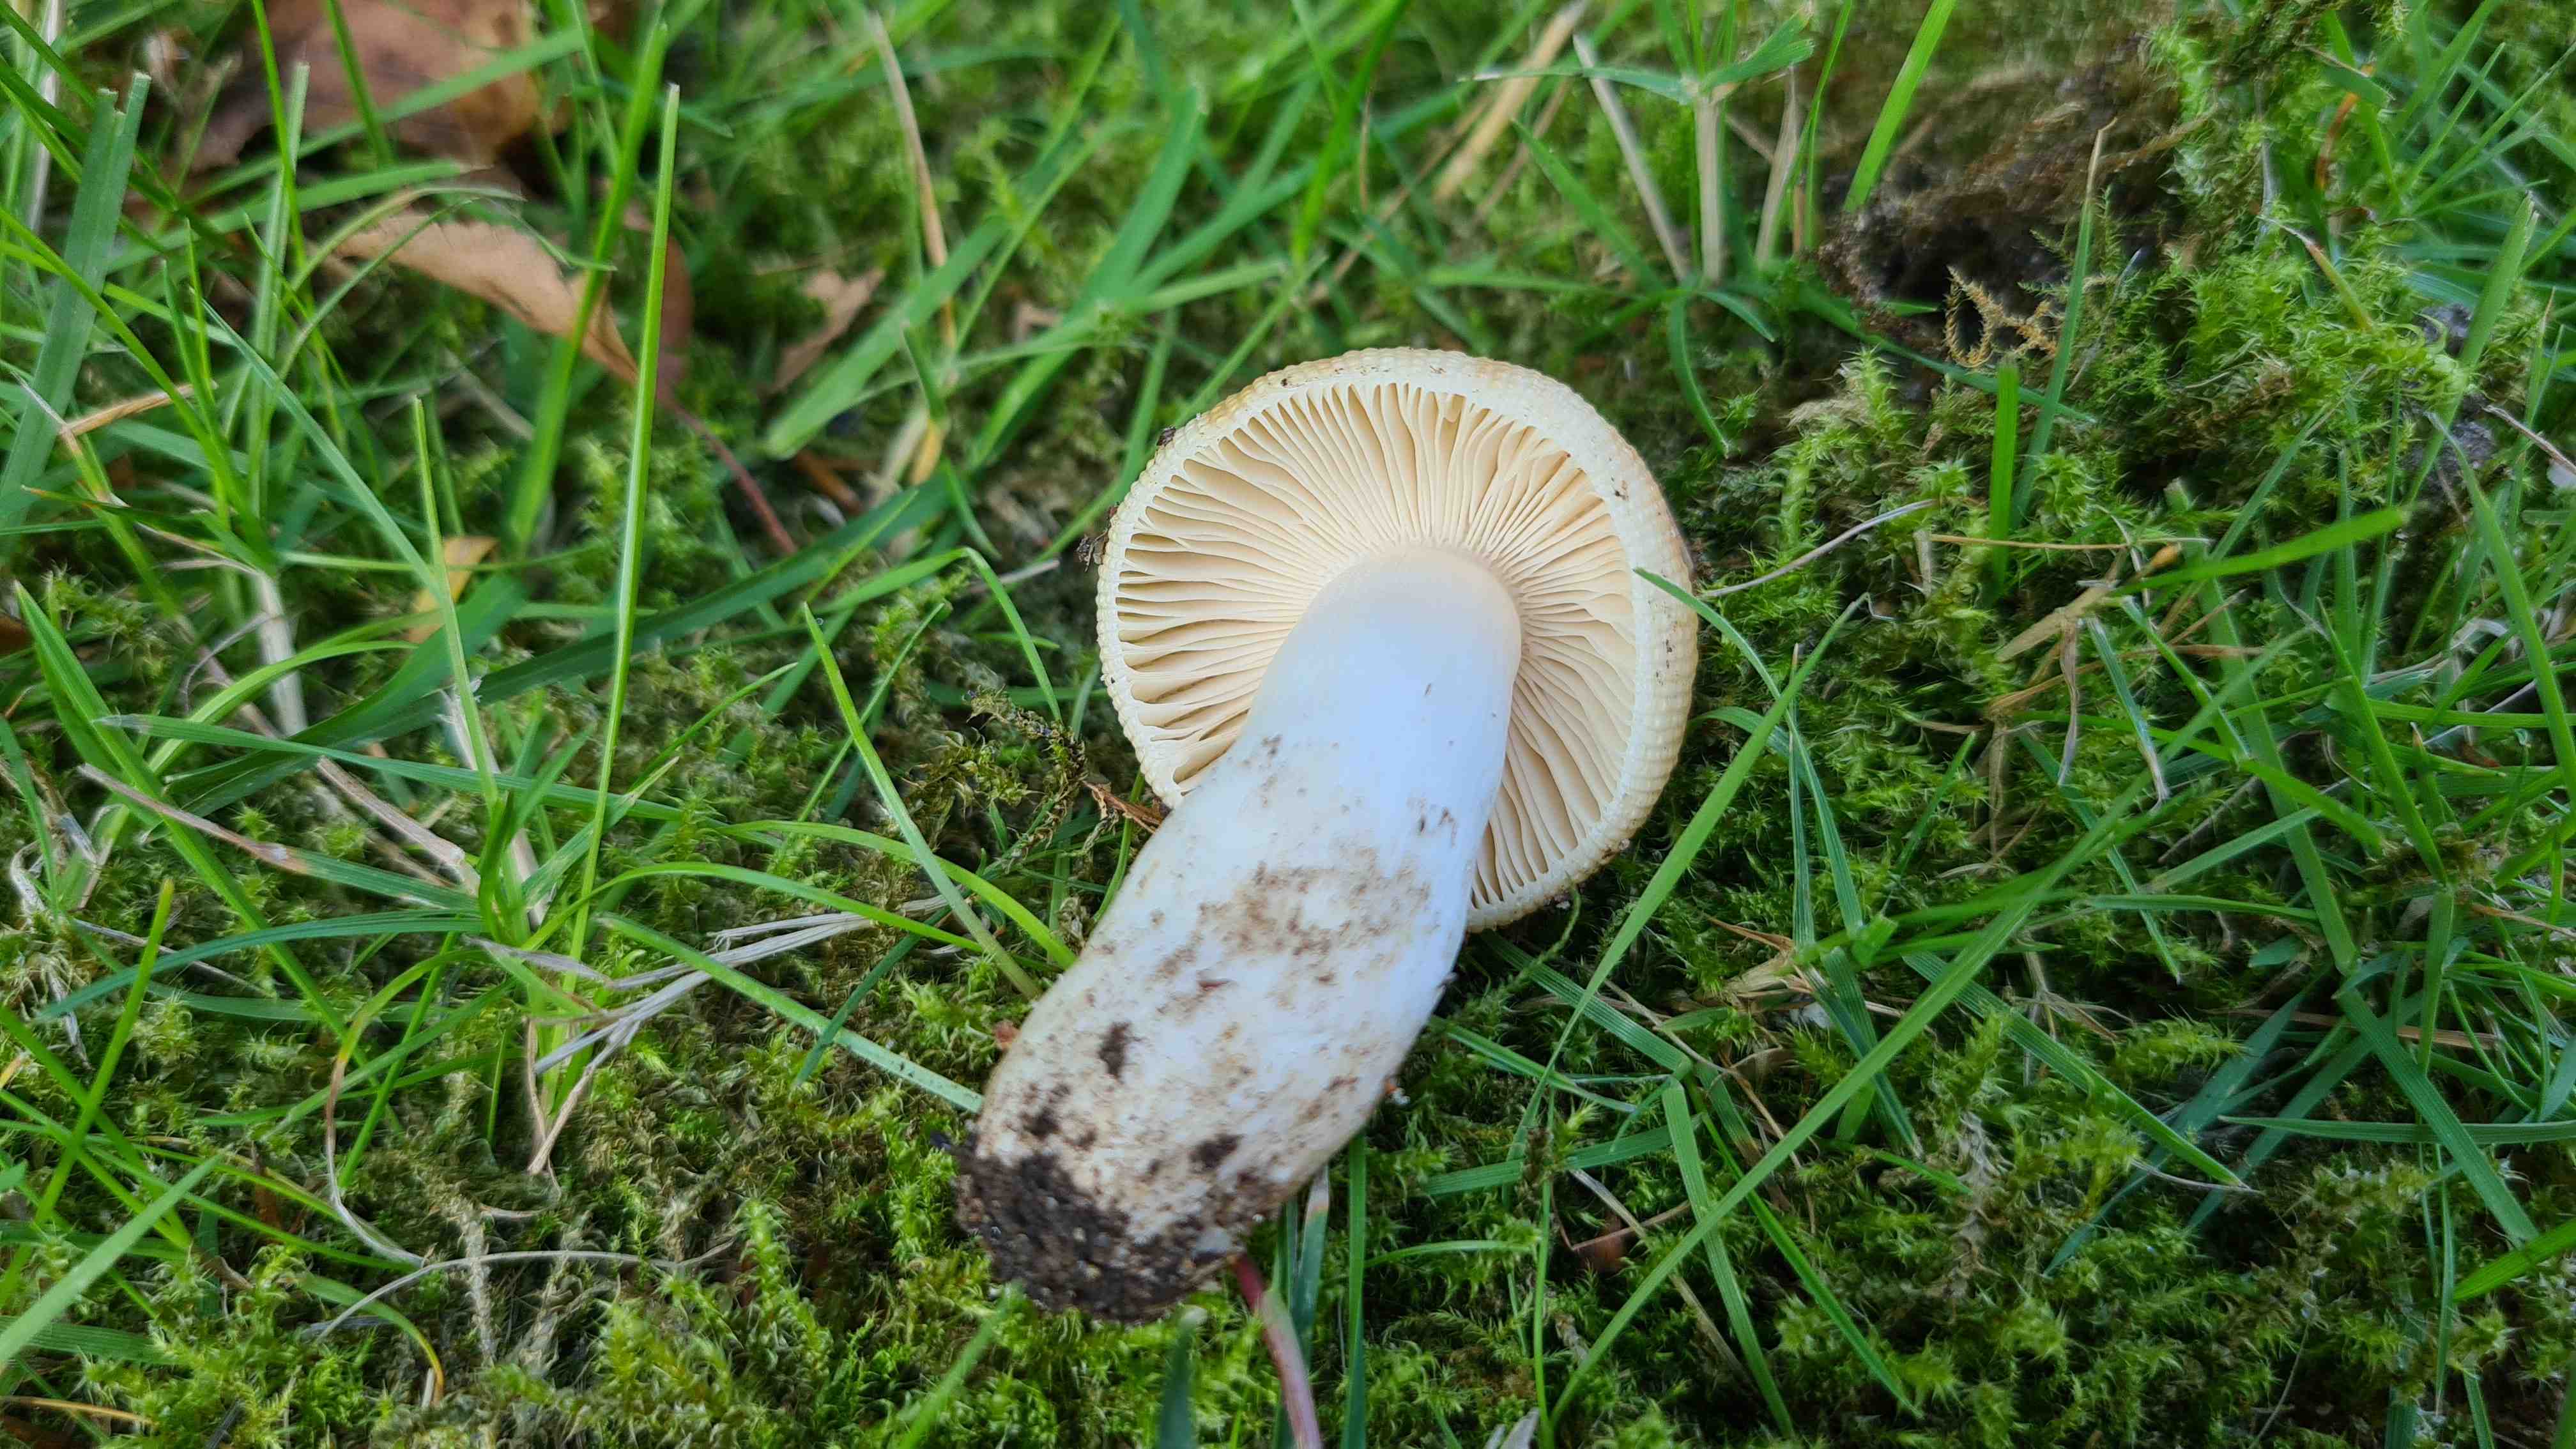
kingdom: Fungi
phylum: Basidiomycota
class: Agaricomycetes
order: Russulales
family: Russulaceae
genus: Russula
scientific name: Russula recondita
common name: mild kam-skørhat
